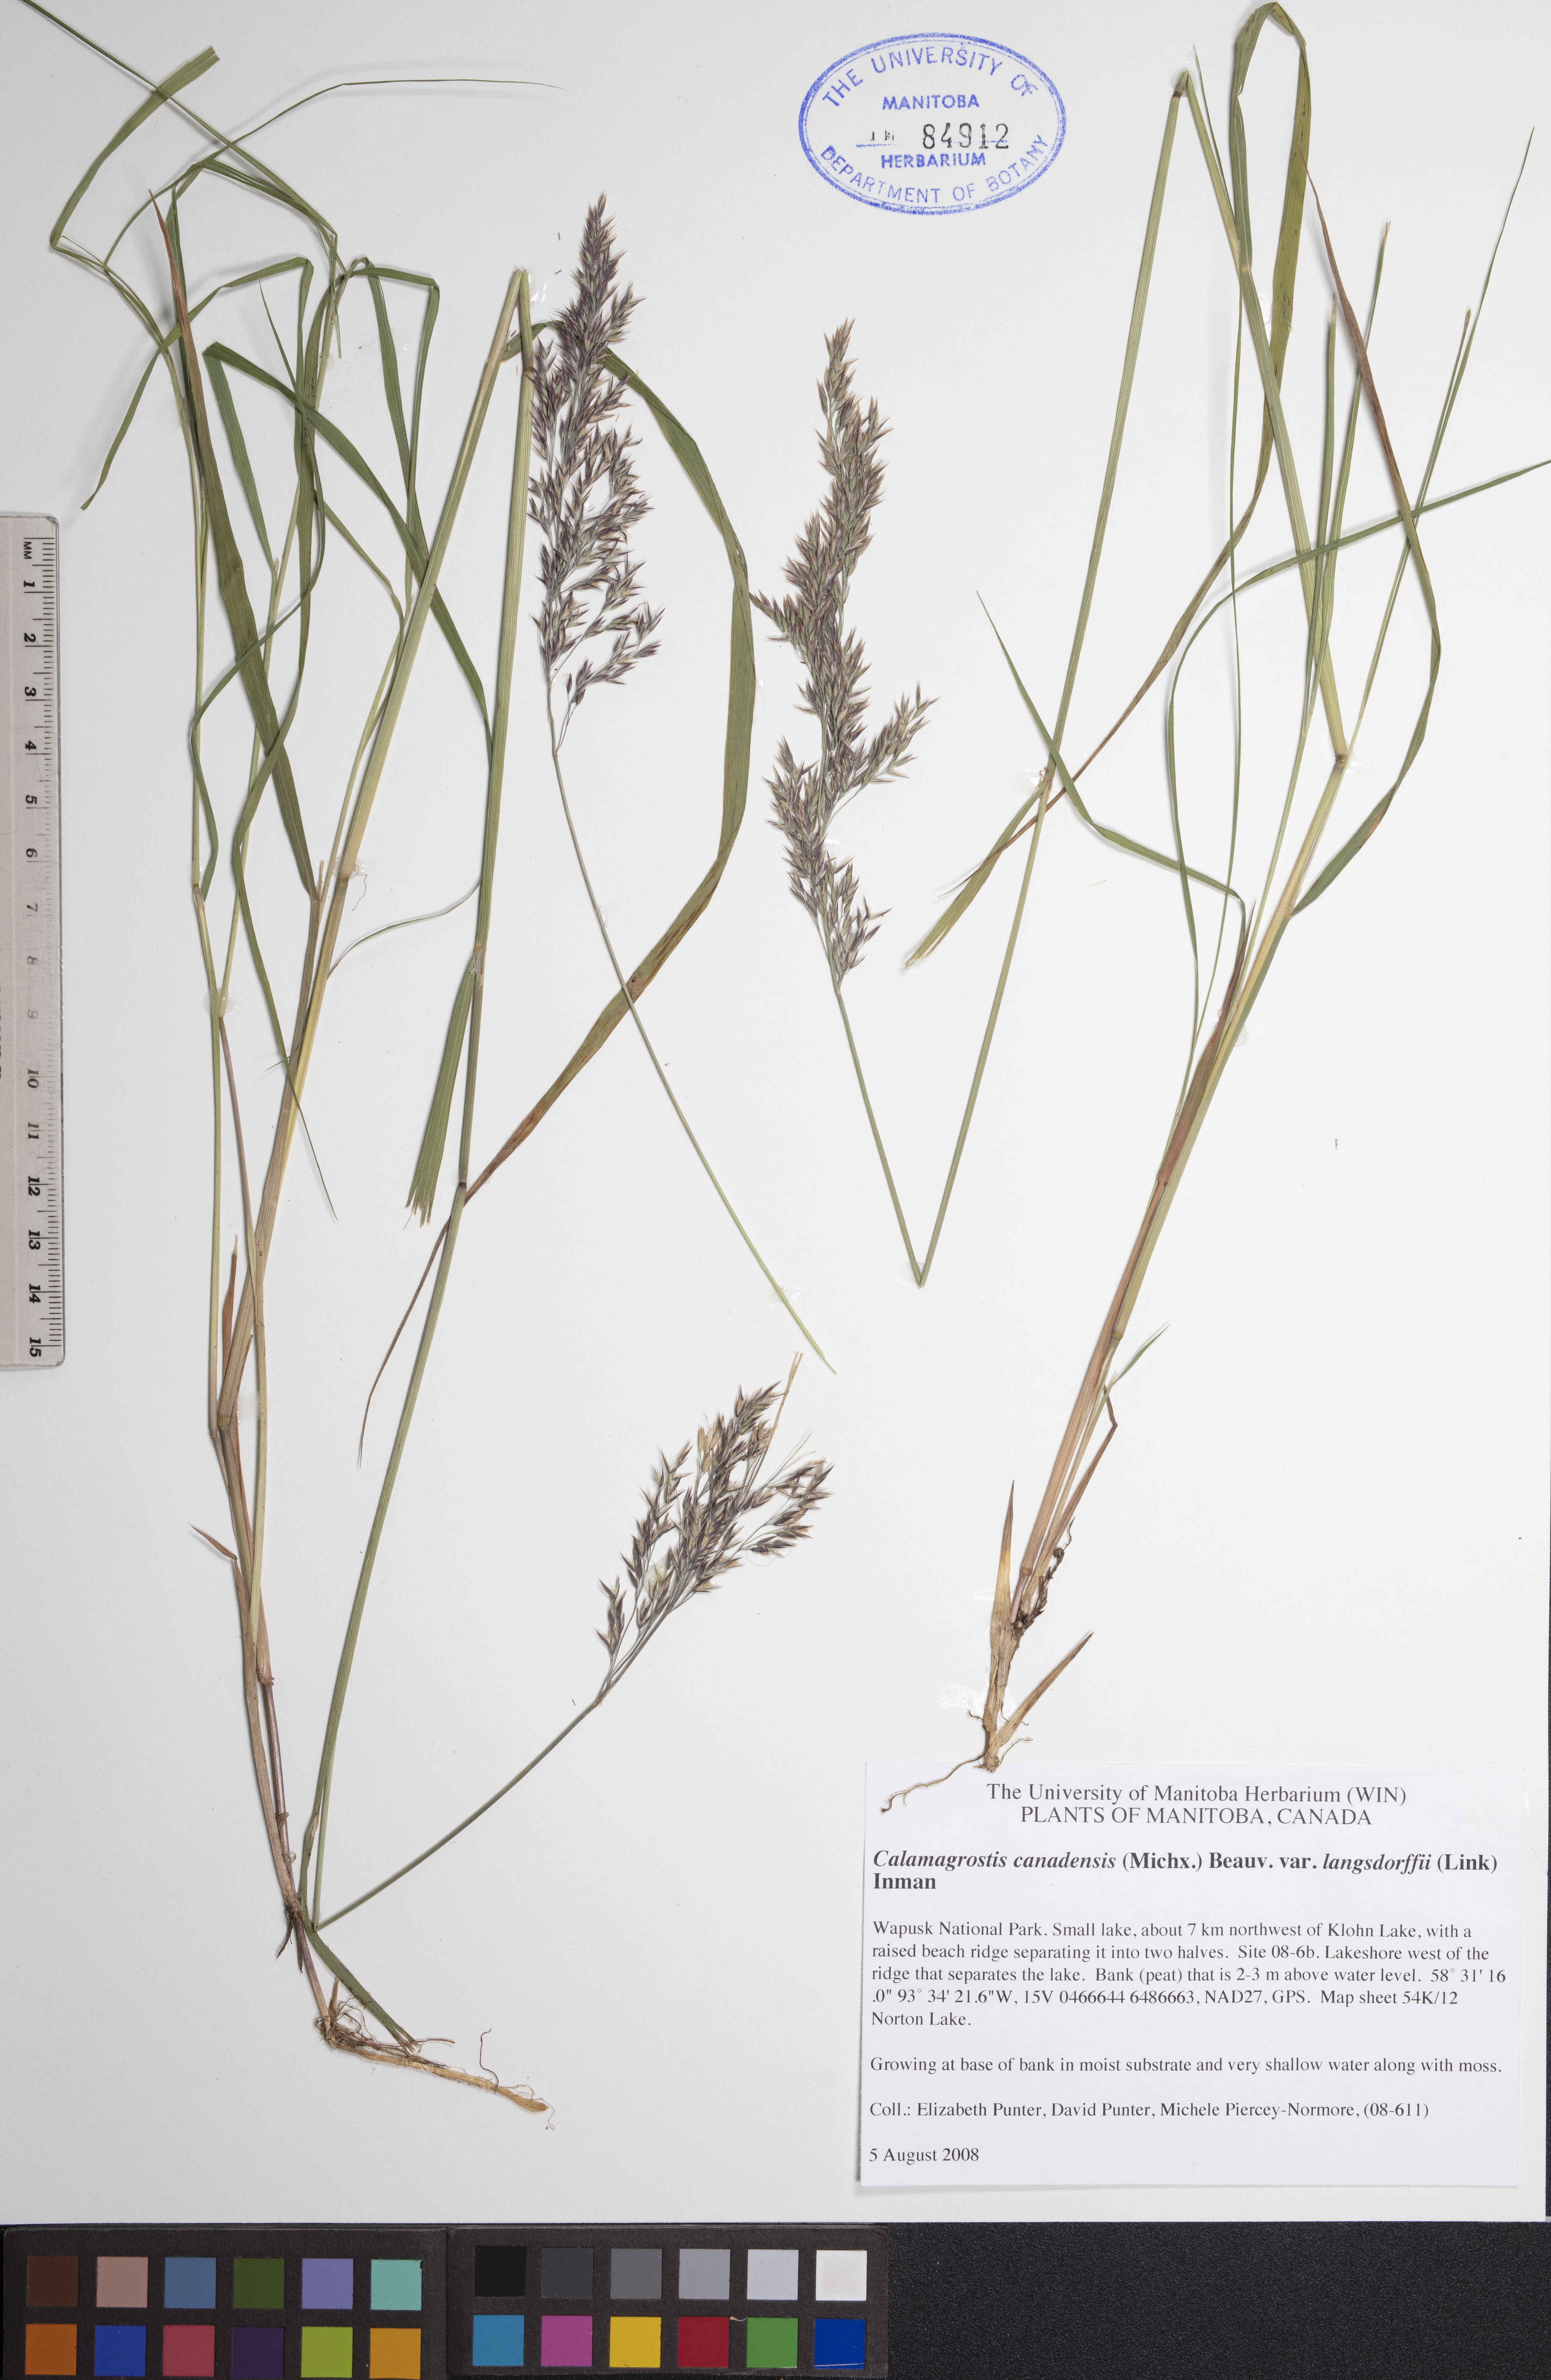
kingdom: Plantae
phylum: Tracheophyta
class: Liliopsida
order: Poales
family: Poaceae
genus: Calamagrostis
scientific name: Calamagrostis purpurea
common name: Scandinavian small-reed
